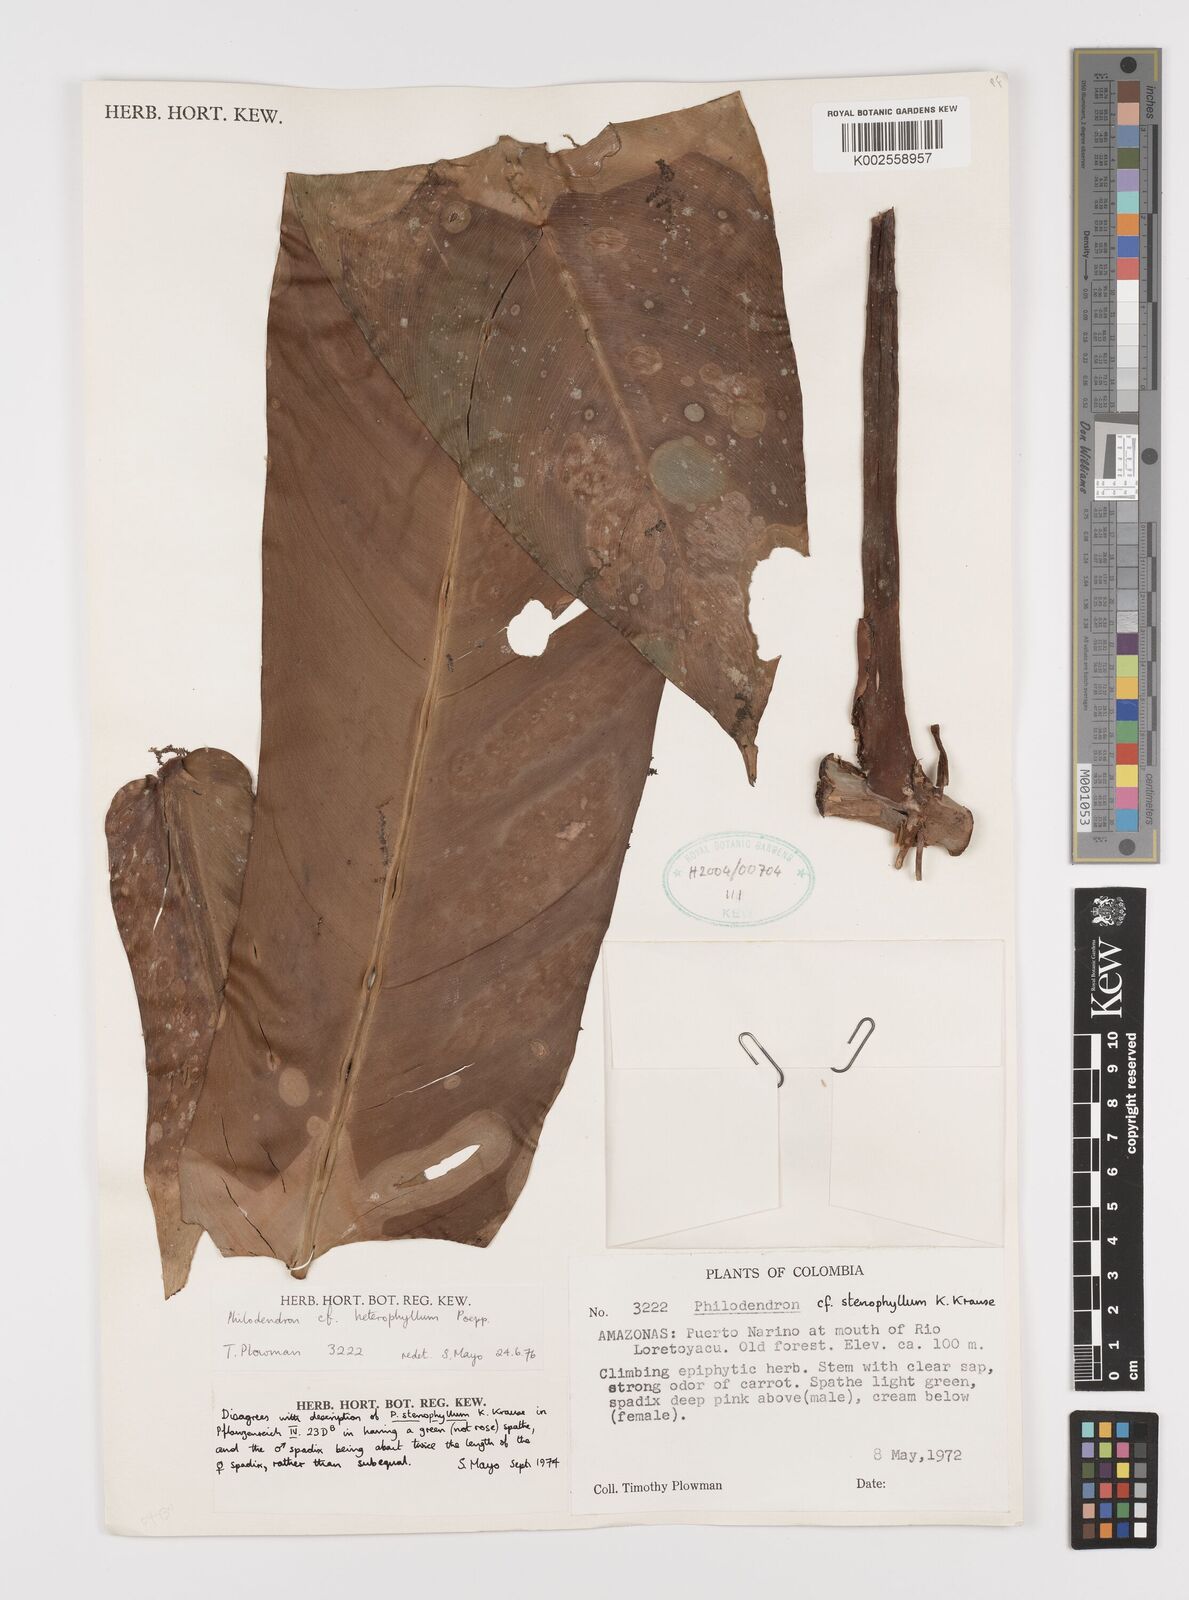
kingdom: Plantae
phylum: Tracheophyta
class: Liliopsida
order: Alismatales
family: Araceae
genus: Philodendron
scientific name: Philodendron heterophyllum
